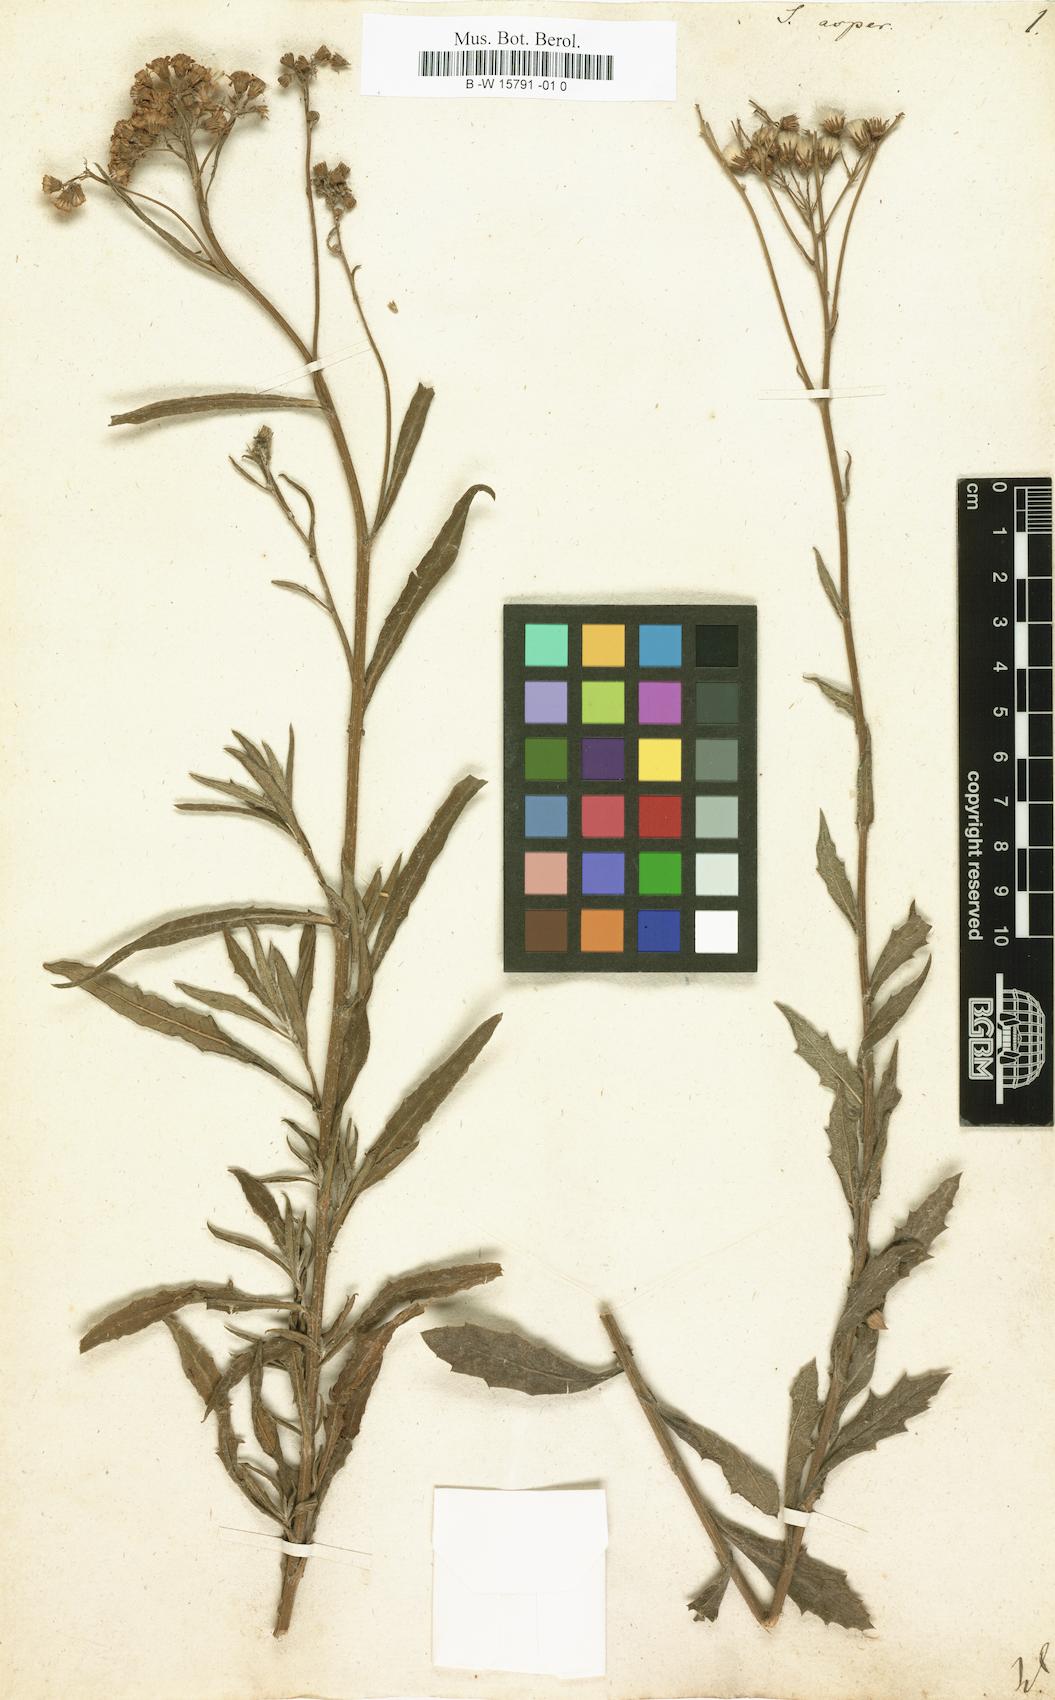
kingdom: Plantae
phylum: Tracheophyta
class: Magnoliopsida
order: Asterales
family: Asteraceae
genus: Senecio
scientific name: Senecio
